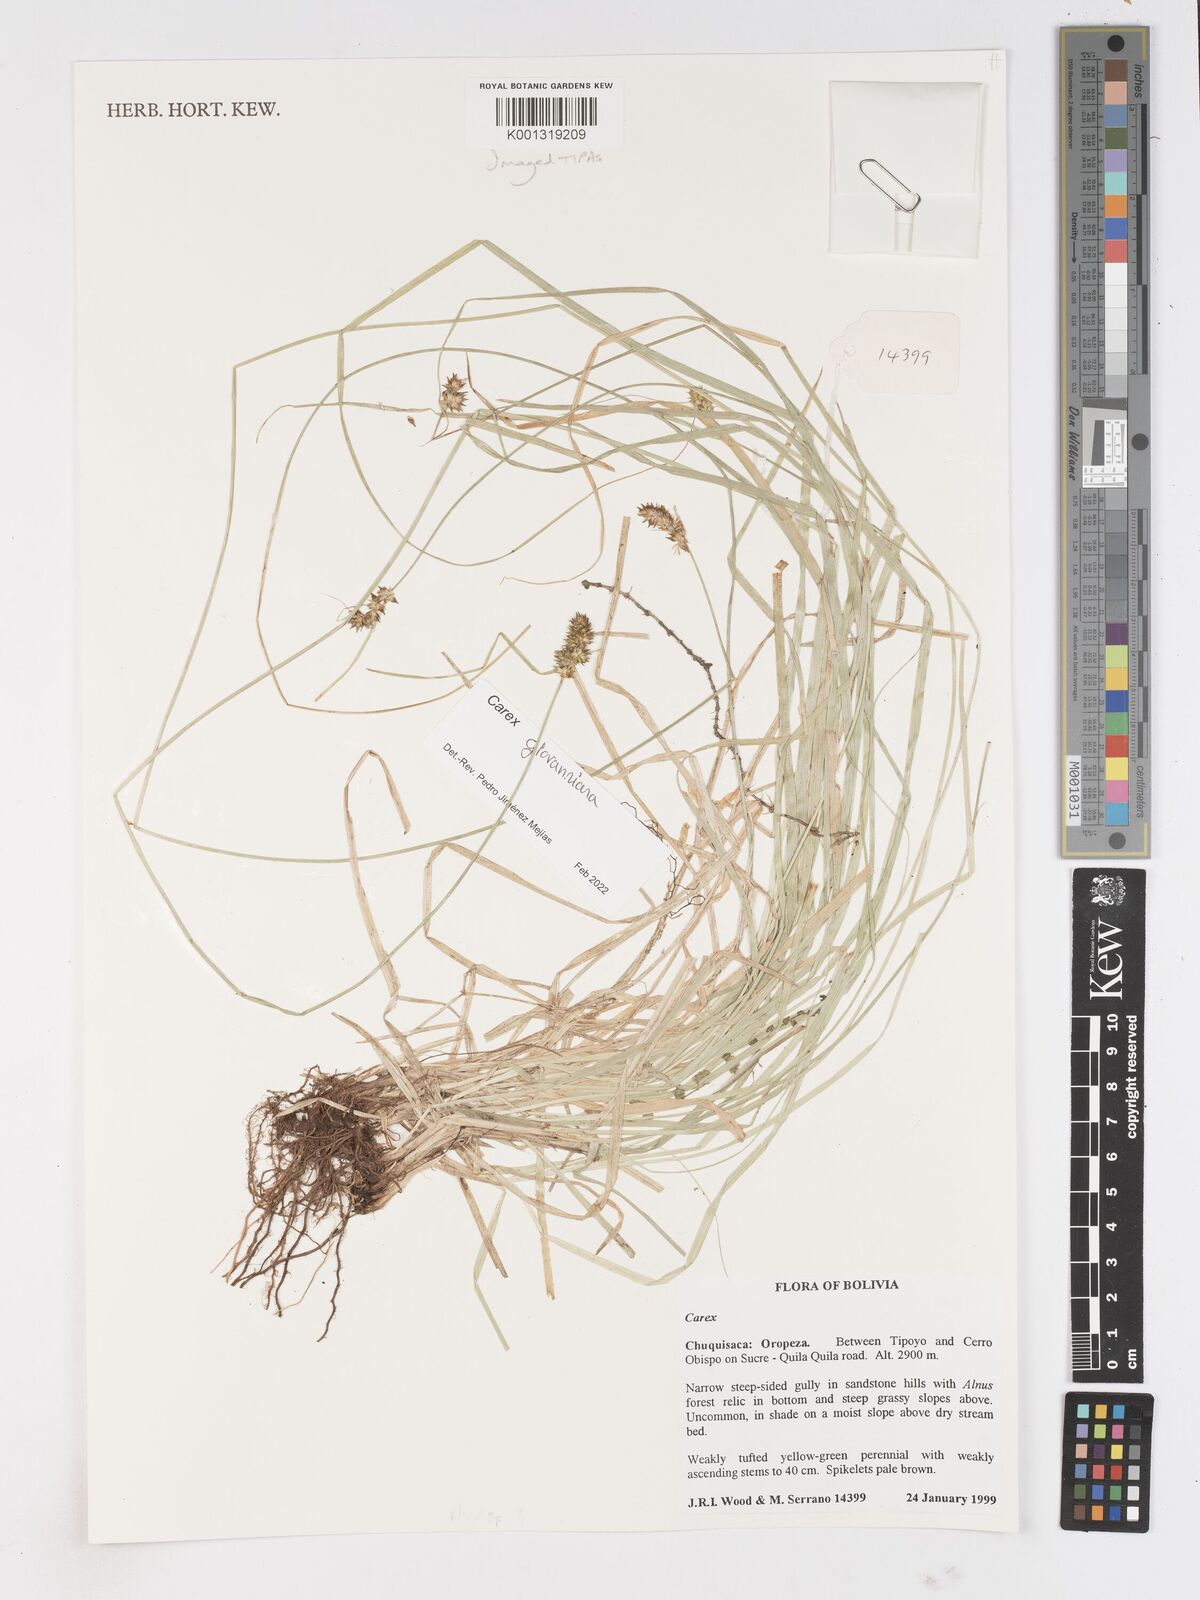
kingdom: Plantae
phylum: Tracheophyta
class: Liliopsida
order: Poales
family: Cyperaceae
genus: Carex
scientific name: Carex
